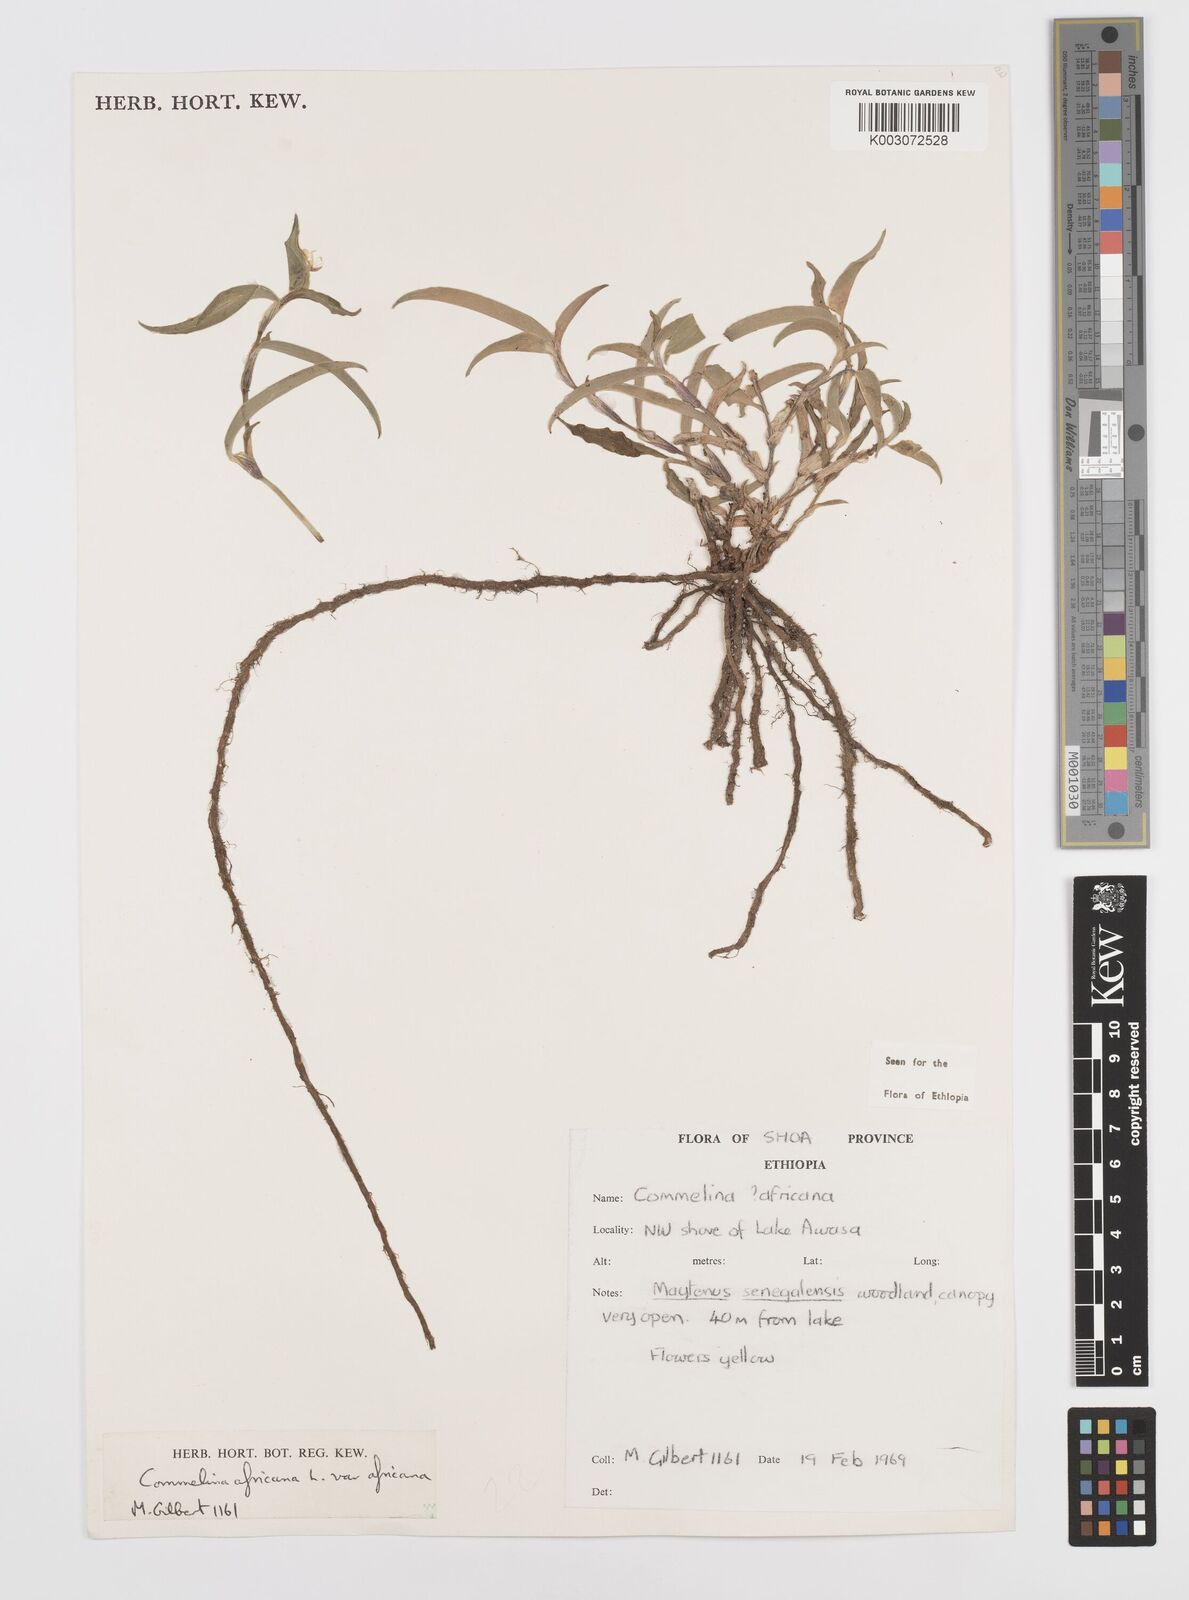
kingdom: Plantae
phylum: Tracheophyta
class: Liliopsida
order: Commelinales
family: Commelinaceae
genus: Commelina
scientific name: Commelina africana
